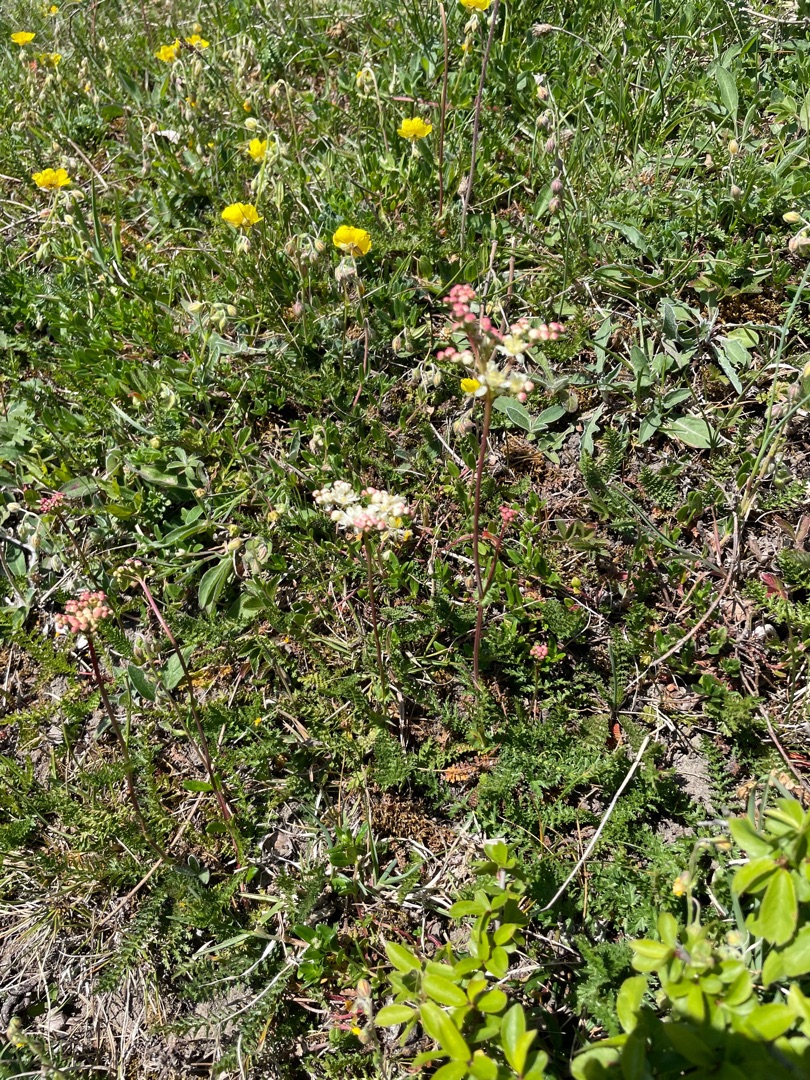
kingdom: Plantae
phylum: Tracheophyta
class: Magnoliopsida
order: Rosales
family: Rosaceae
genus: Filipendula
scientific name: Filipendula vulgaris
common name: Knoldet mjødurt
